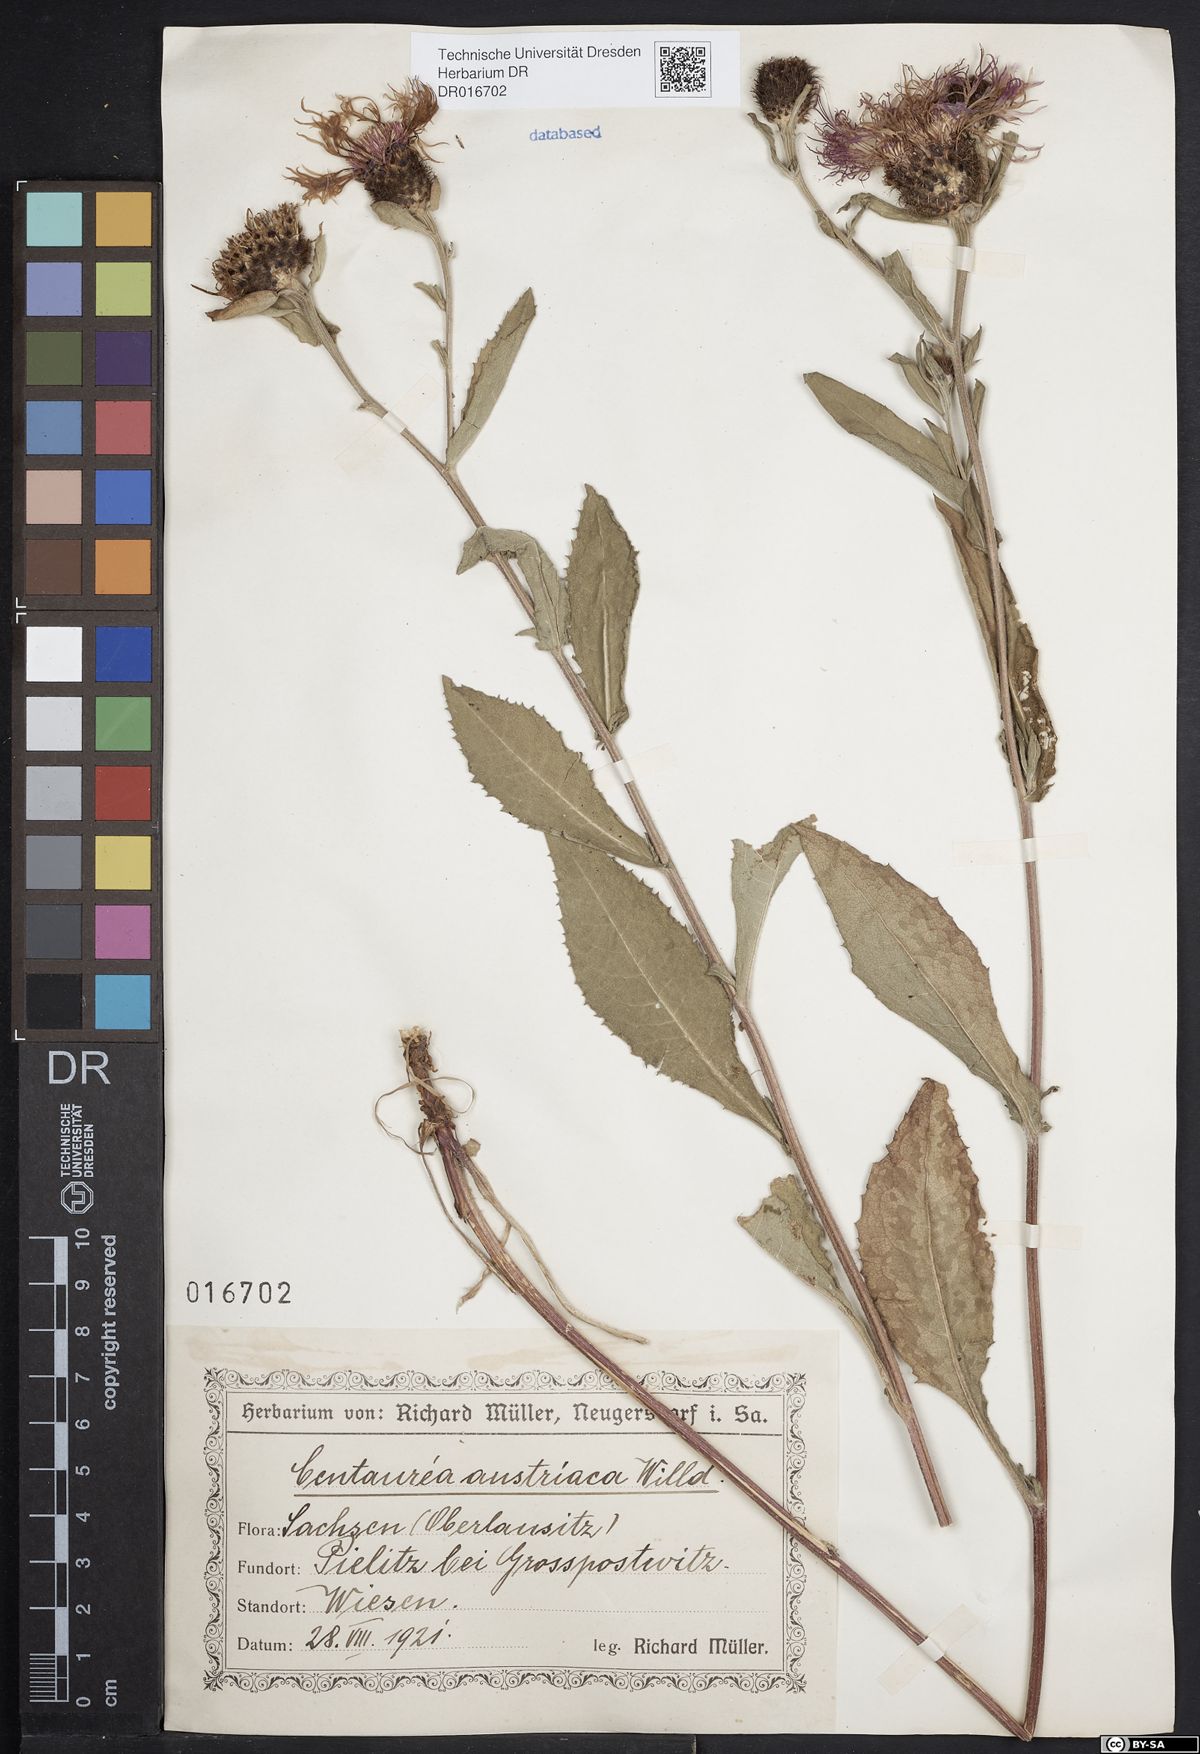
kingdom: Plantae
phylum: Tracheophyta
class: Magnoliopsida
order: Asterales
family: Asteraceae
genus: Centaurea
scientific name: Centaurea phrygia
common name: Wig knapweed
